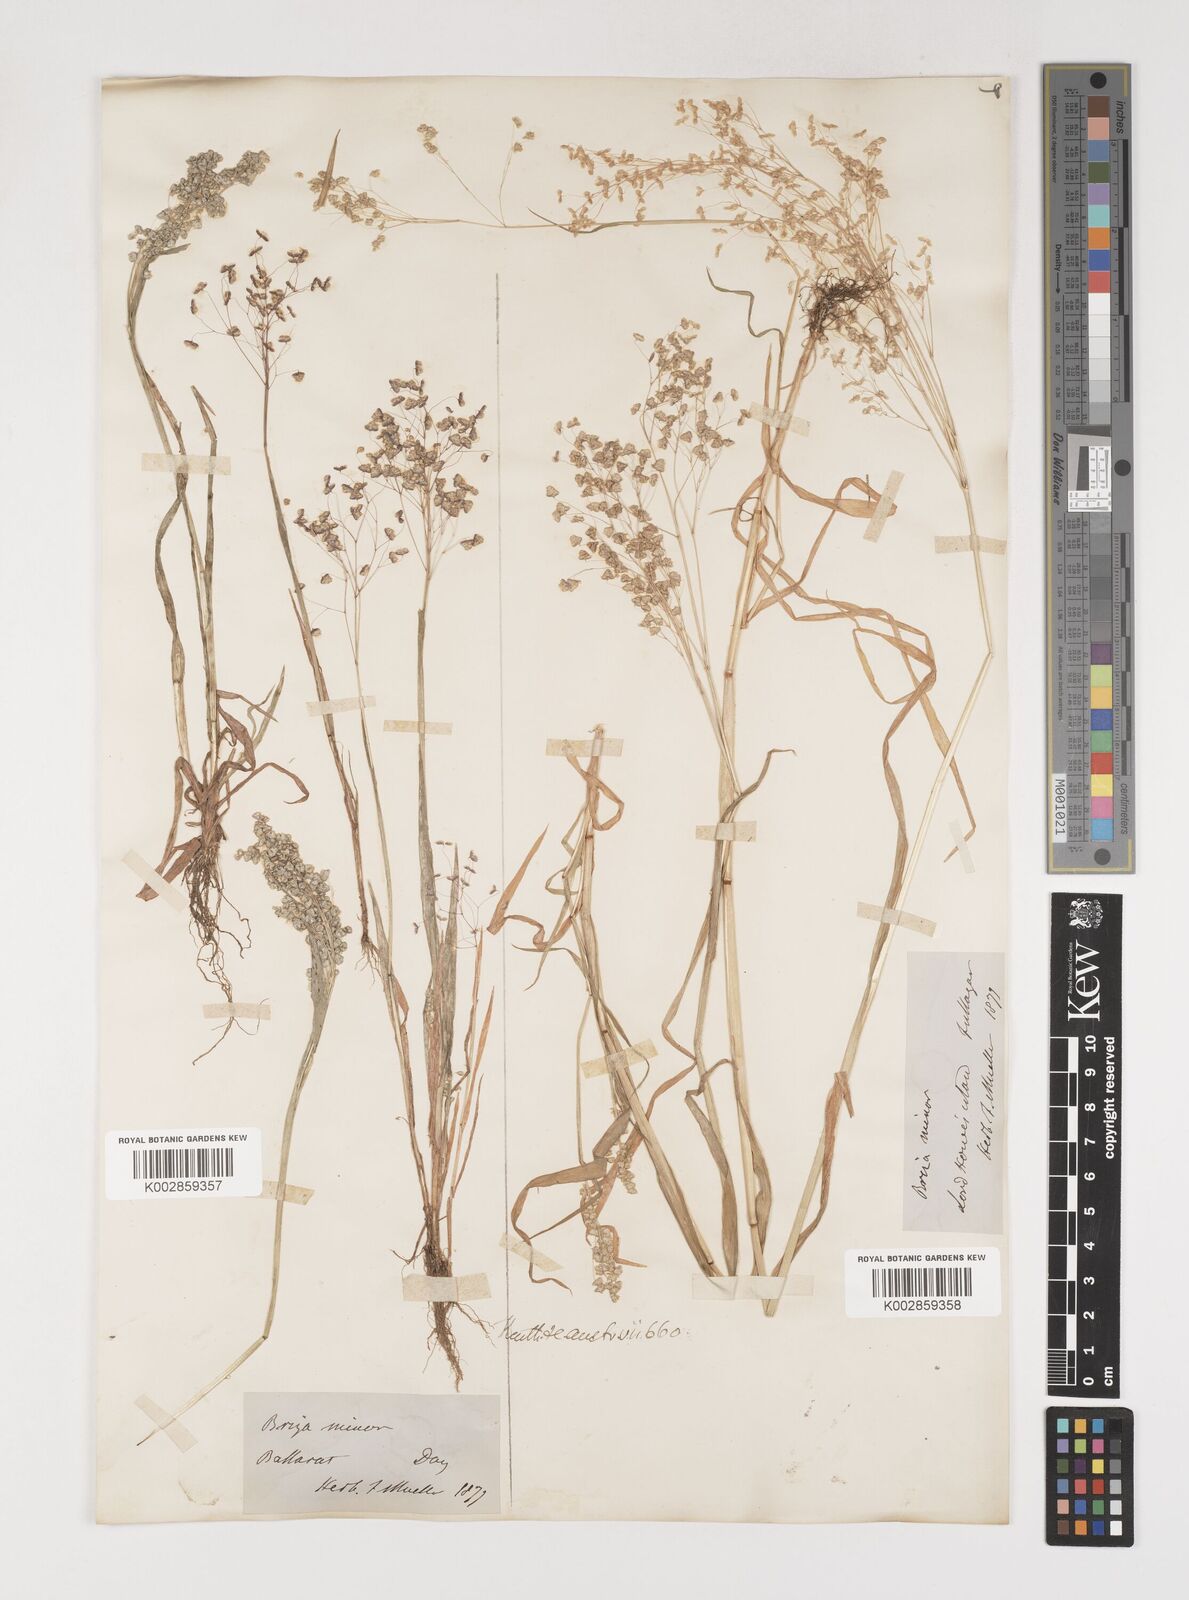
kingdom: Plantae
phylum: Tracheophyta
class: Liliopsida
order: Poales
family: Poaceae
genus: Briza
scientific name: Briza minor
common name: Lesser quaking-grass
